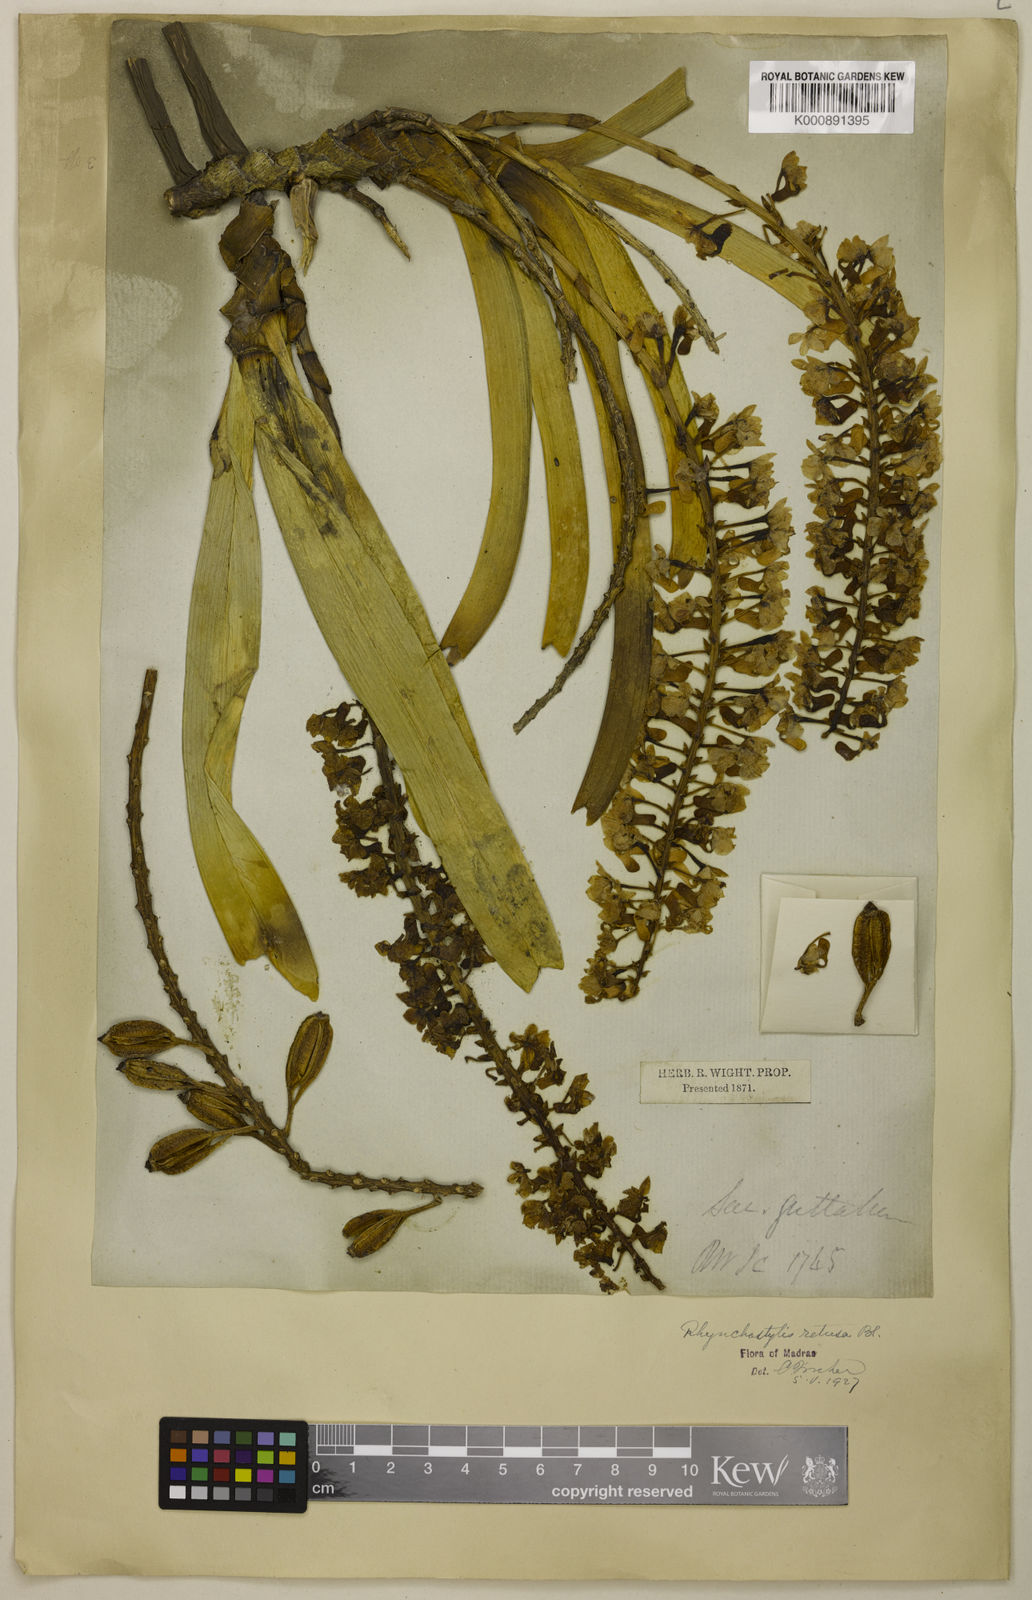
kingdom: Plantae
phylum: Tracheophyta
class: Liliopsida
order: Asparagales
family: Orchidaceae
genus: Rhynchostylis
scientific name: Rhynchostylis retusa
